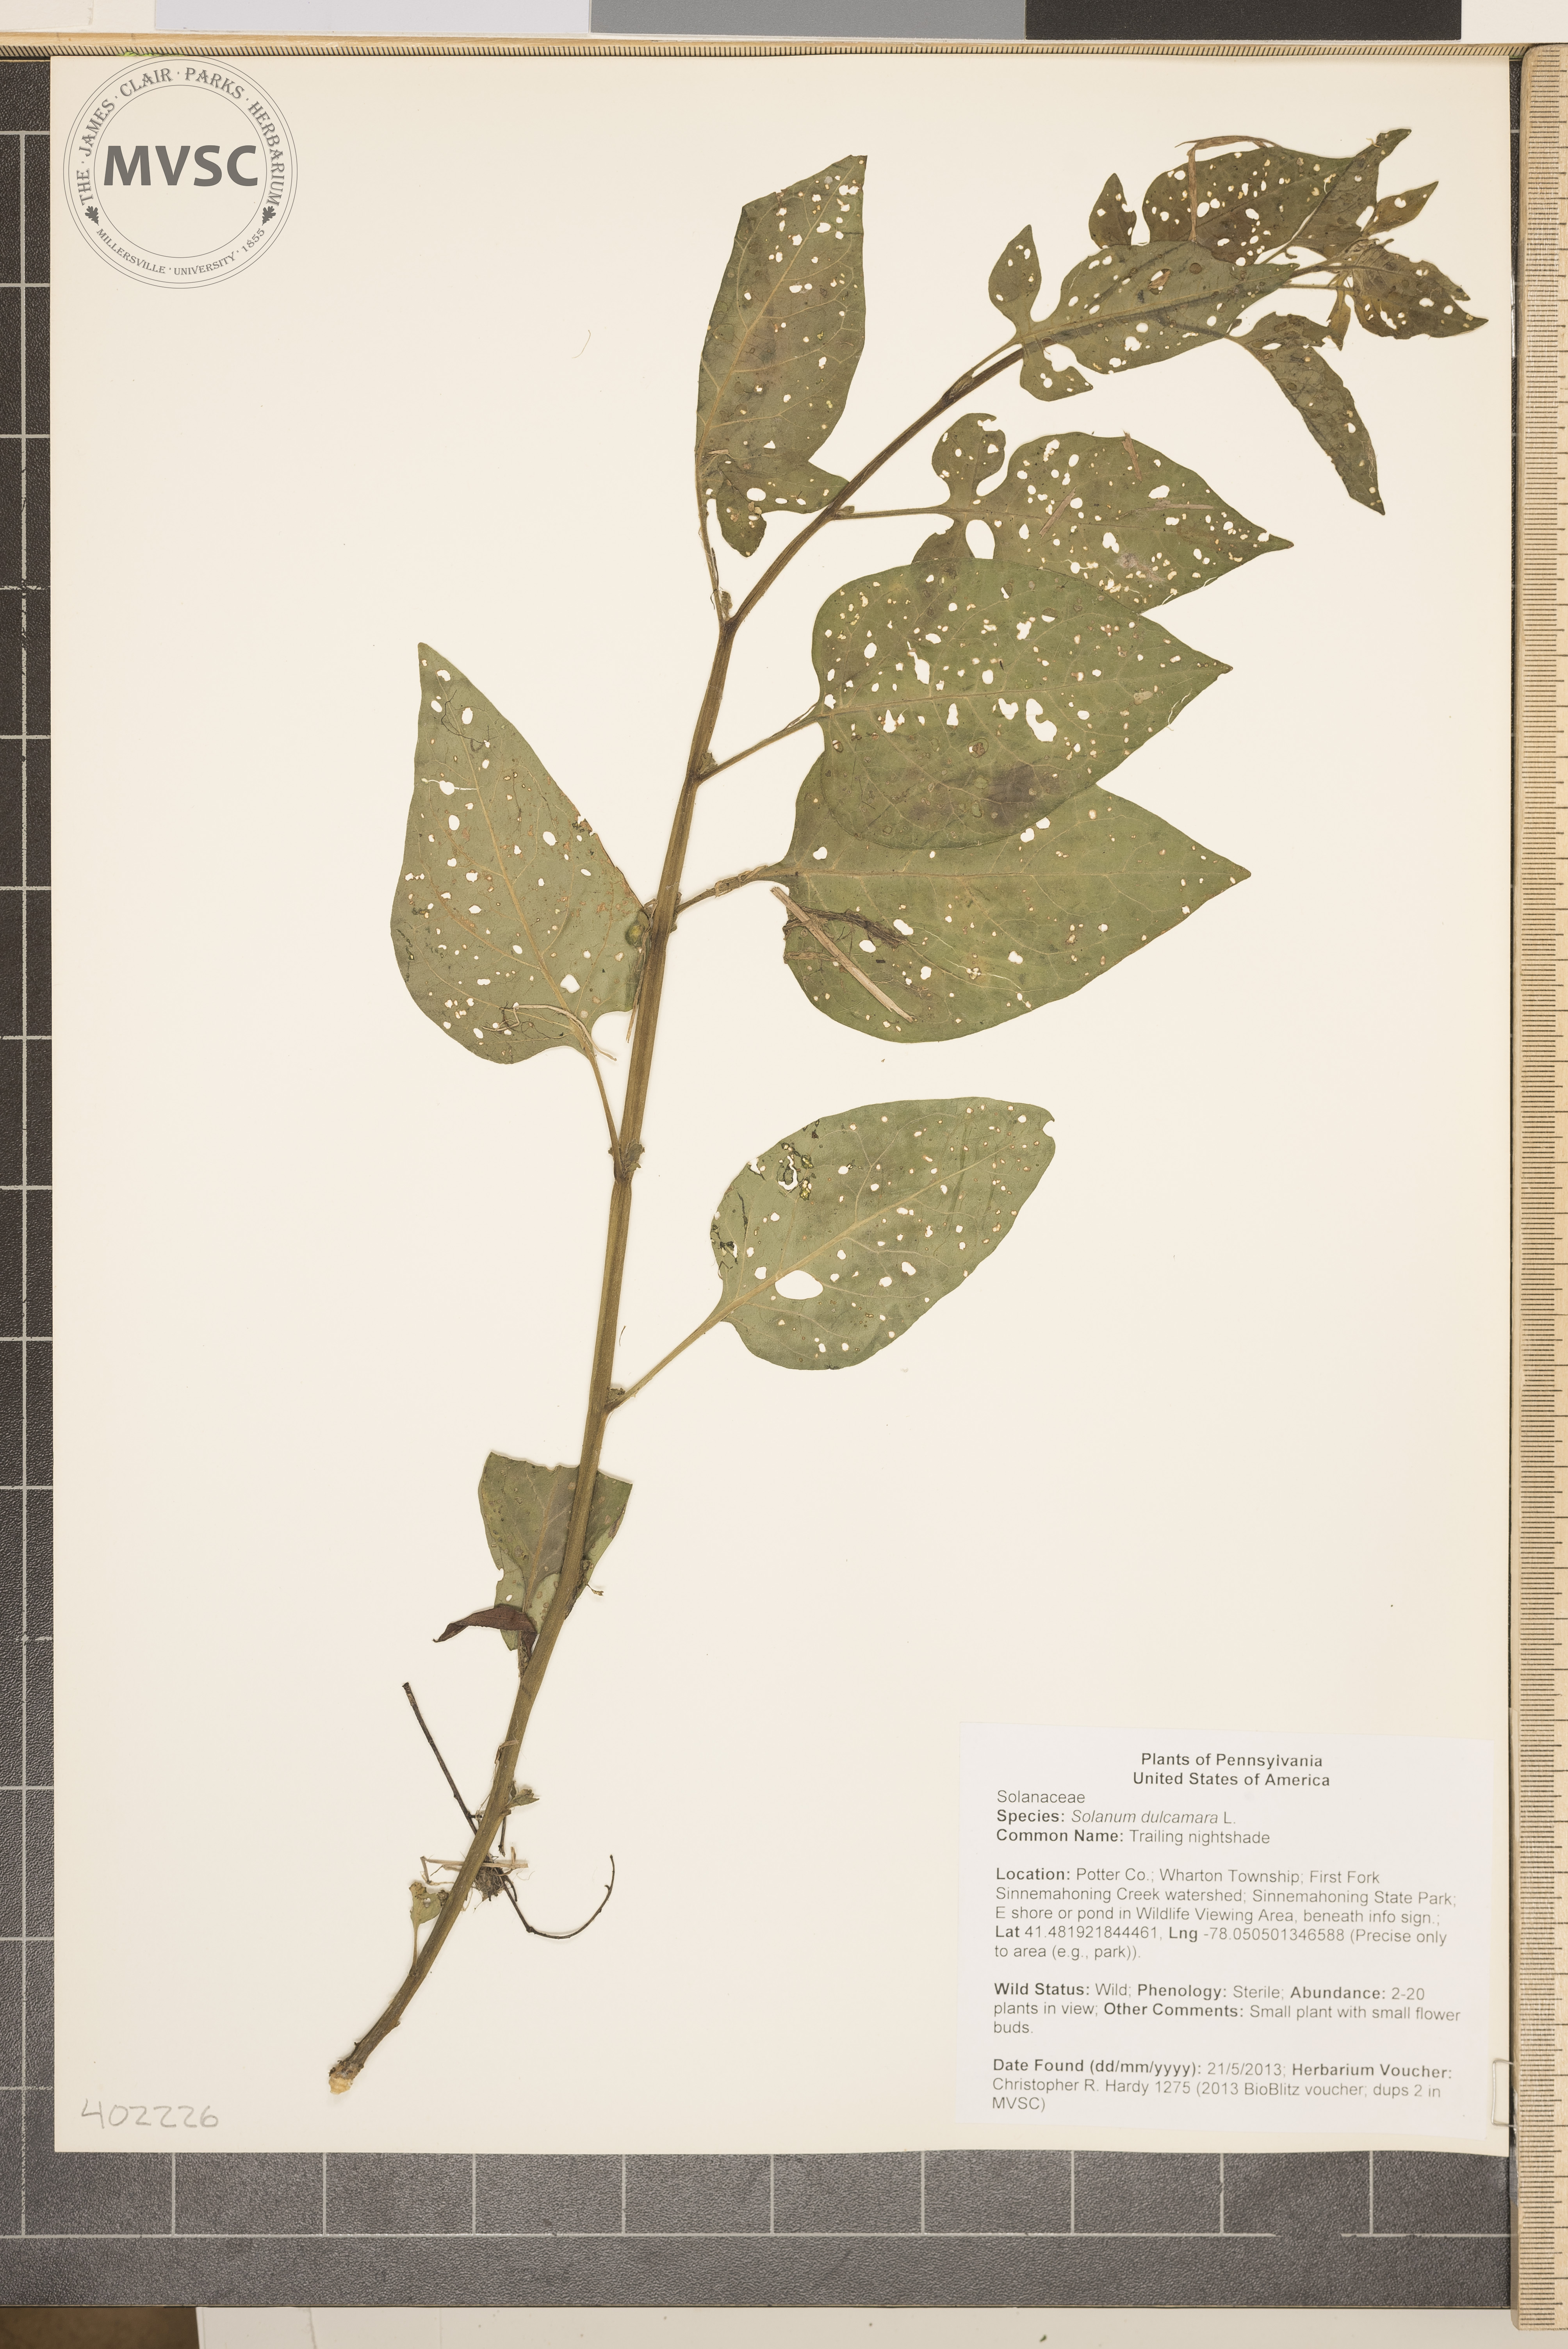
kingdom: Plantae
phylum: Tracheophyta
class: Magnoliopsida
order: Solanales
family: Solanaceae
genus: Solanum
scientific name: Solanum dulcamara
